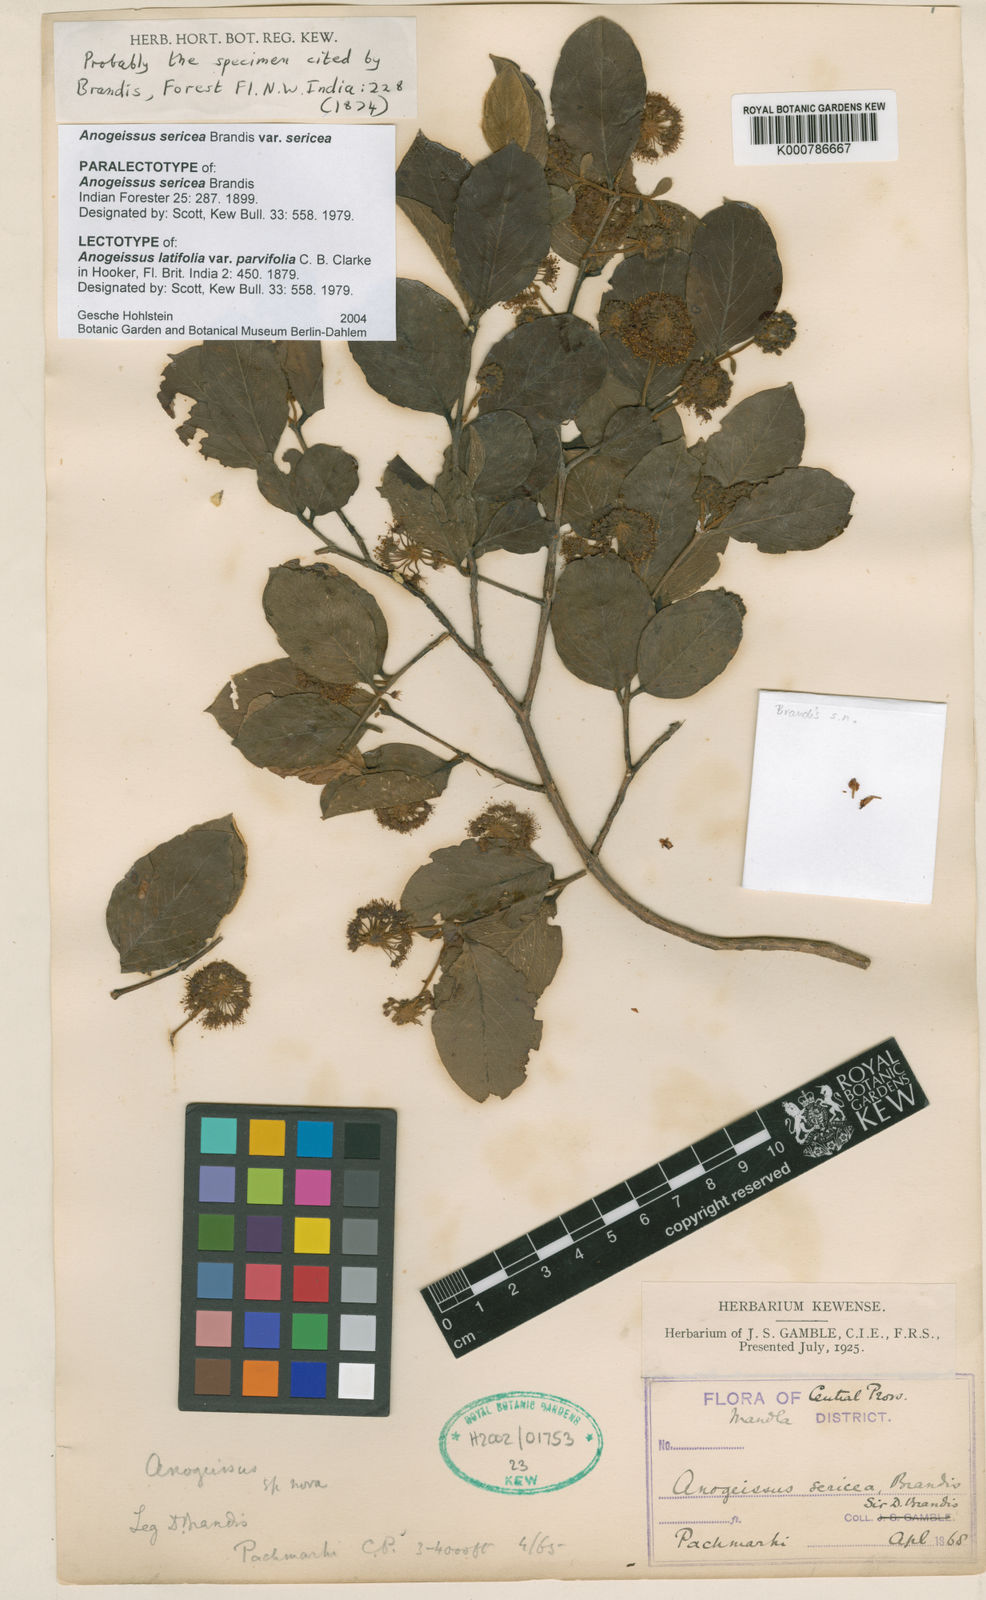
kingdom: Plantae
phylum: Tracheophyta
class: Magnoliopsida
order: Myrtales
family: Combretaceae
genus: Terminalia
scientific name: Terminalia coronata
